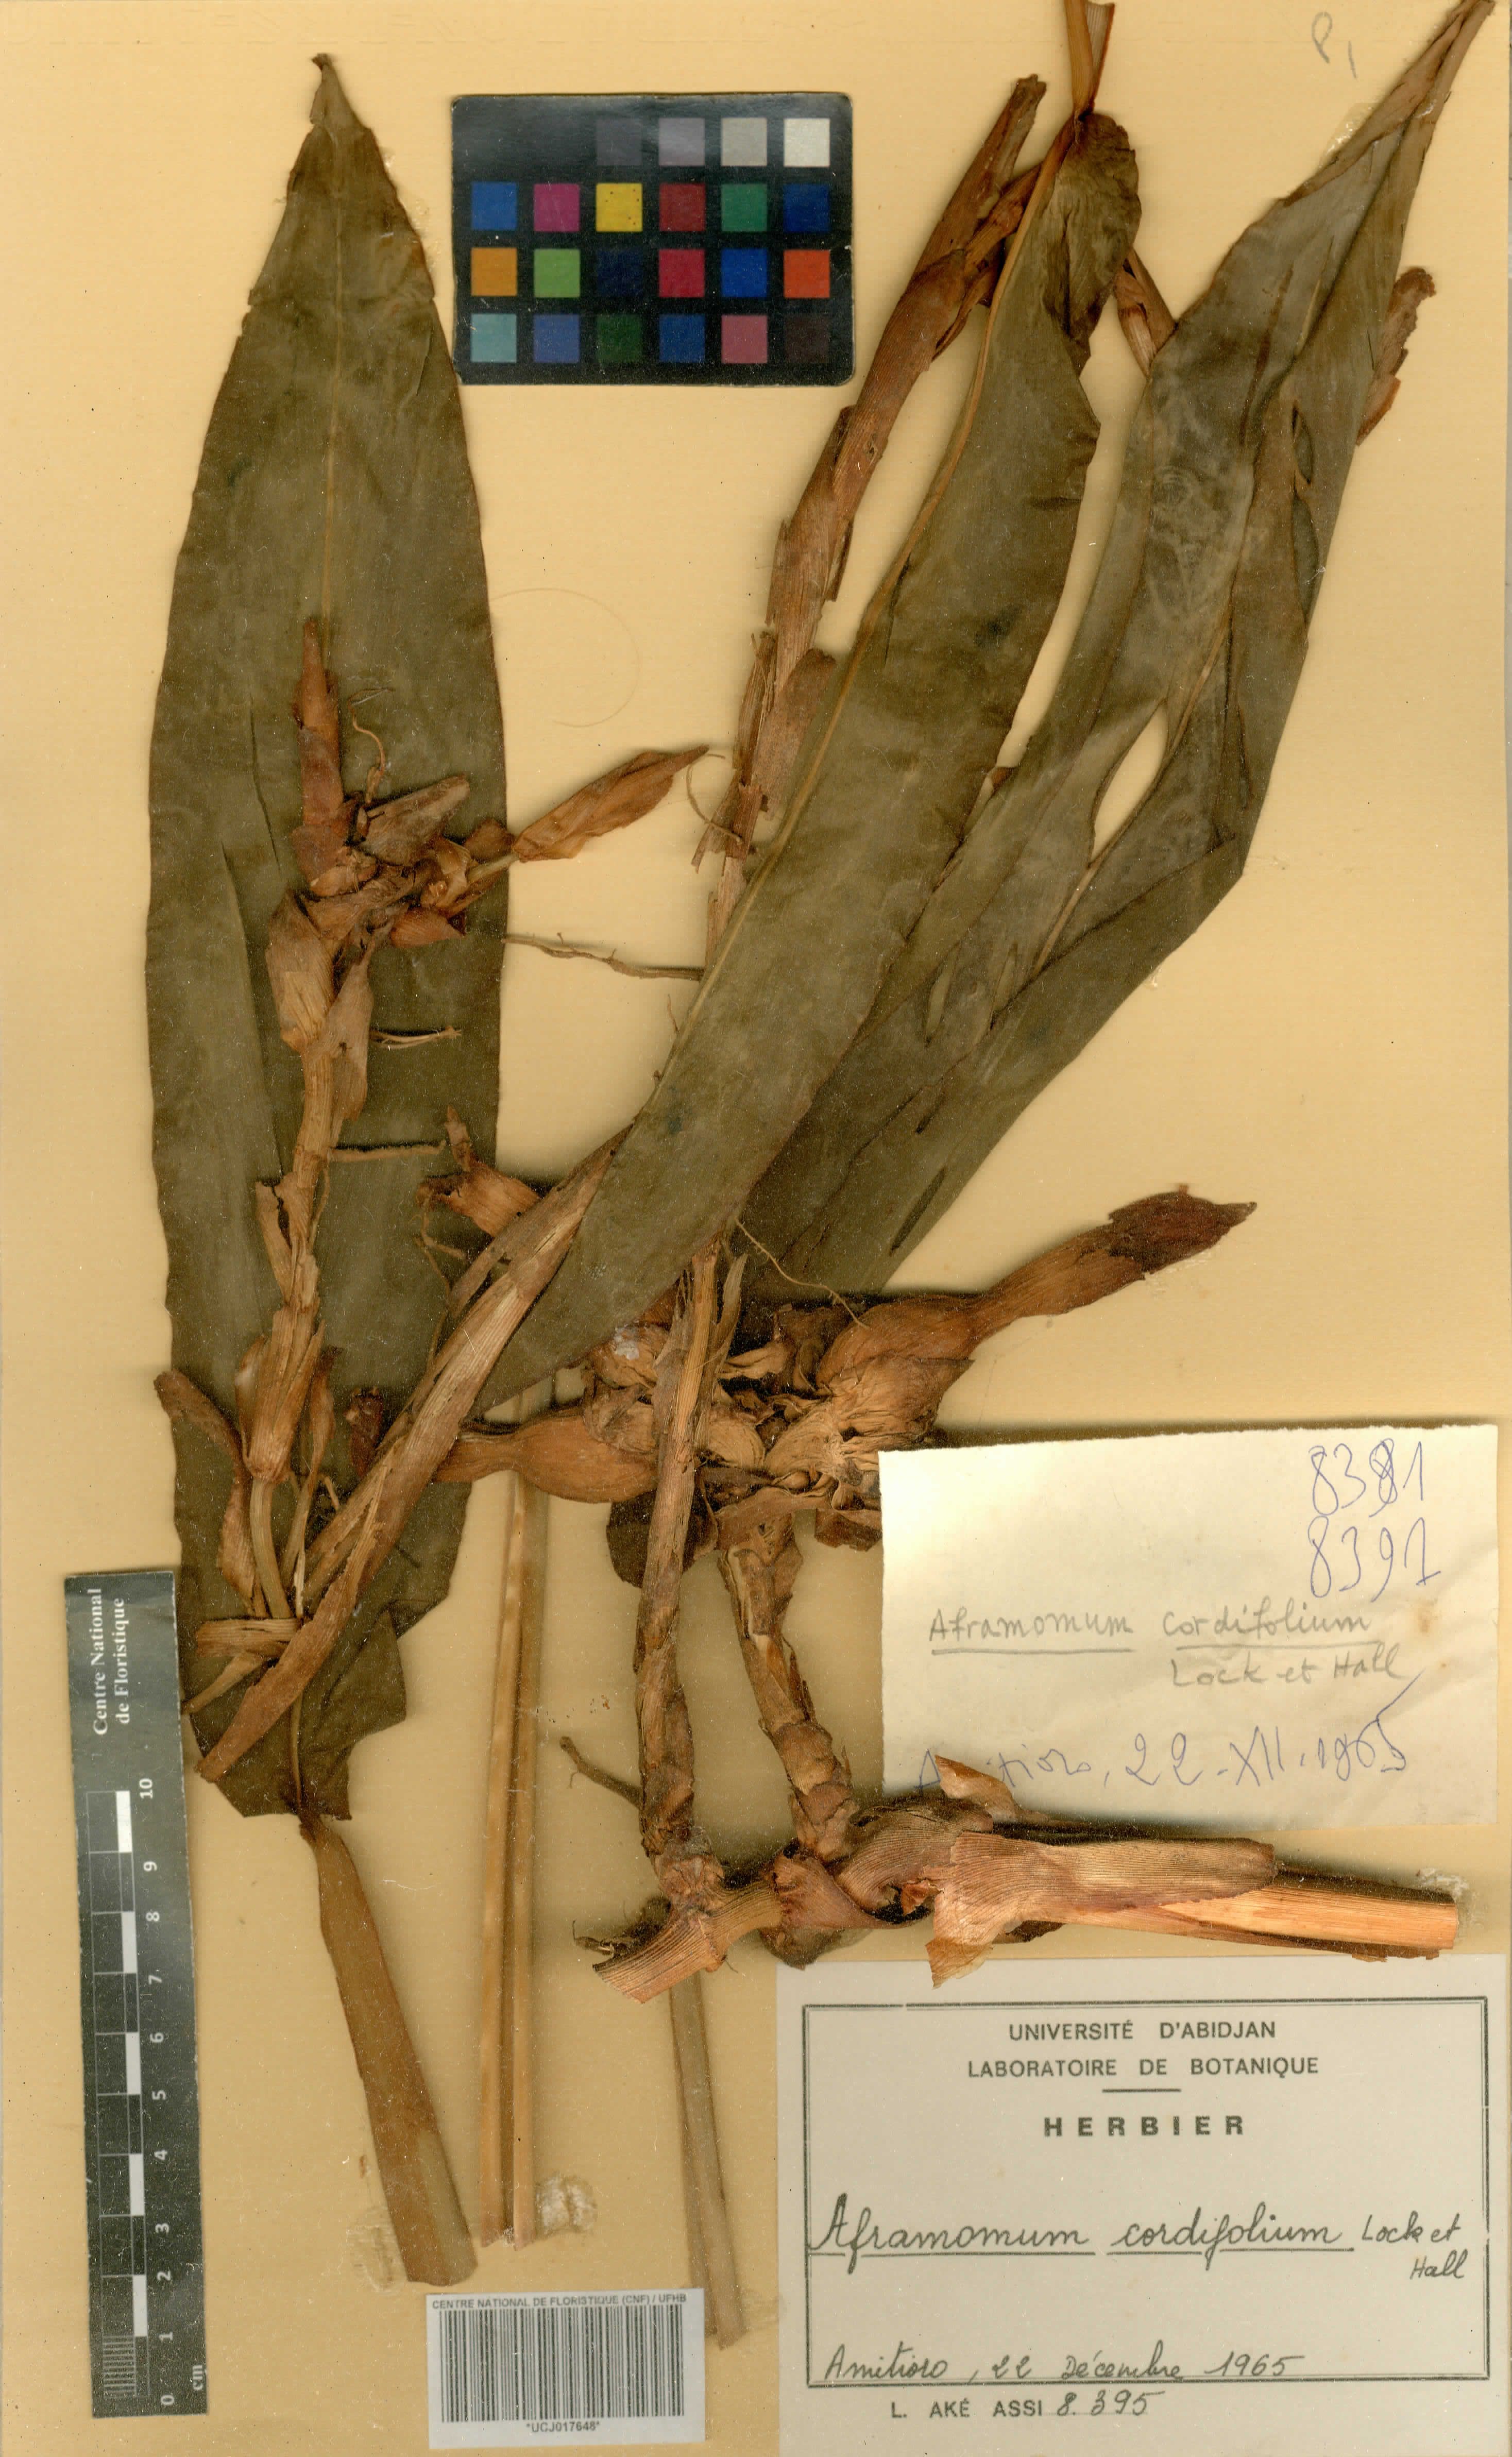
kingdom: Plantae
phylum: Tracheophyta
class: Liliopsida
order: Zingiberales
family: Zingiberaceae
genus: Aframomum
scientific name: Aframomum cordifolium
